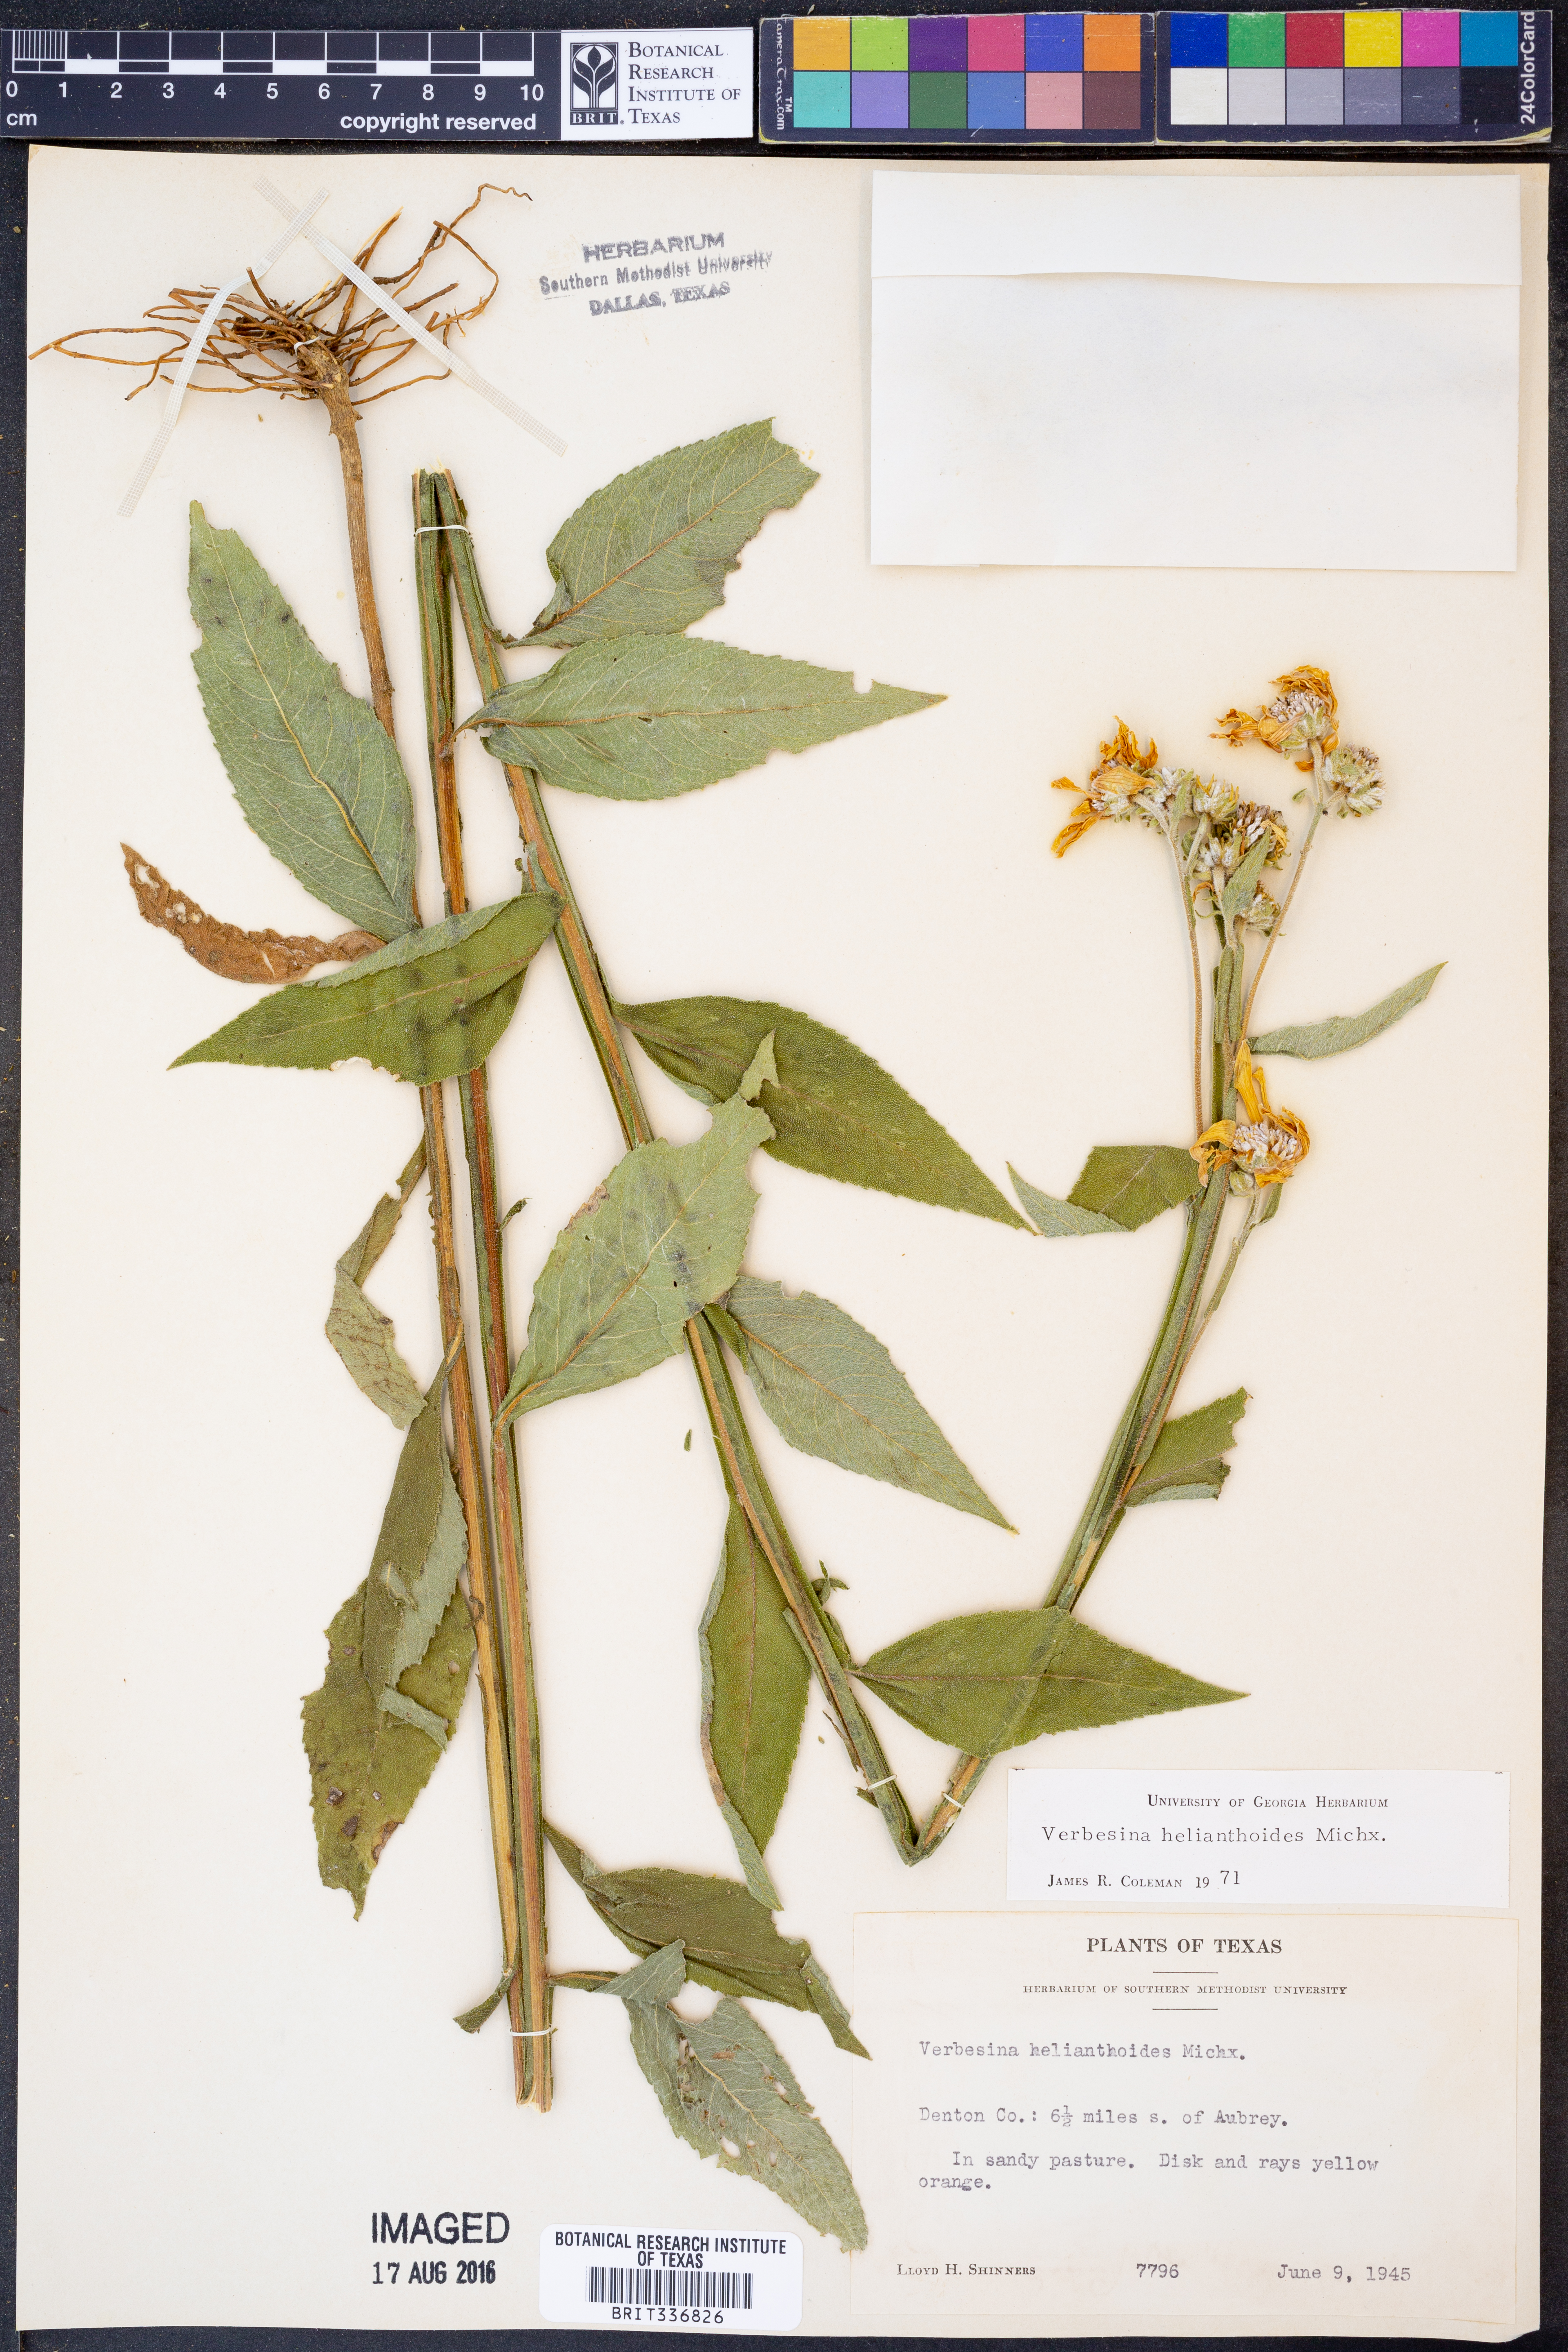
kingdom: Plantae
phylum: Tracheophyta
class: Magnoliopsida
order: Asterales
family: Asteraceae
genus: Verbesina
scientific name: Verbesina helianthoides
